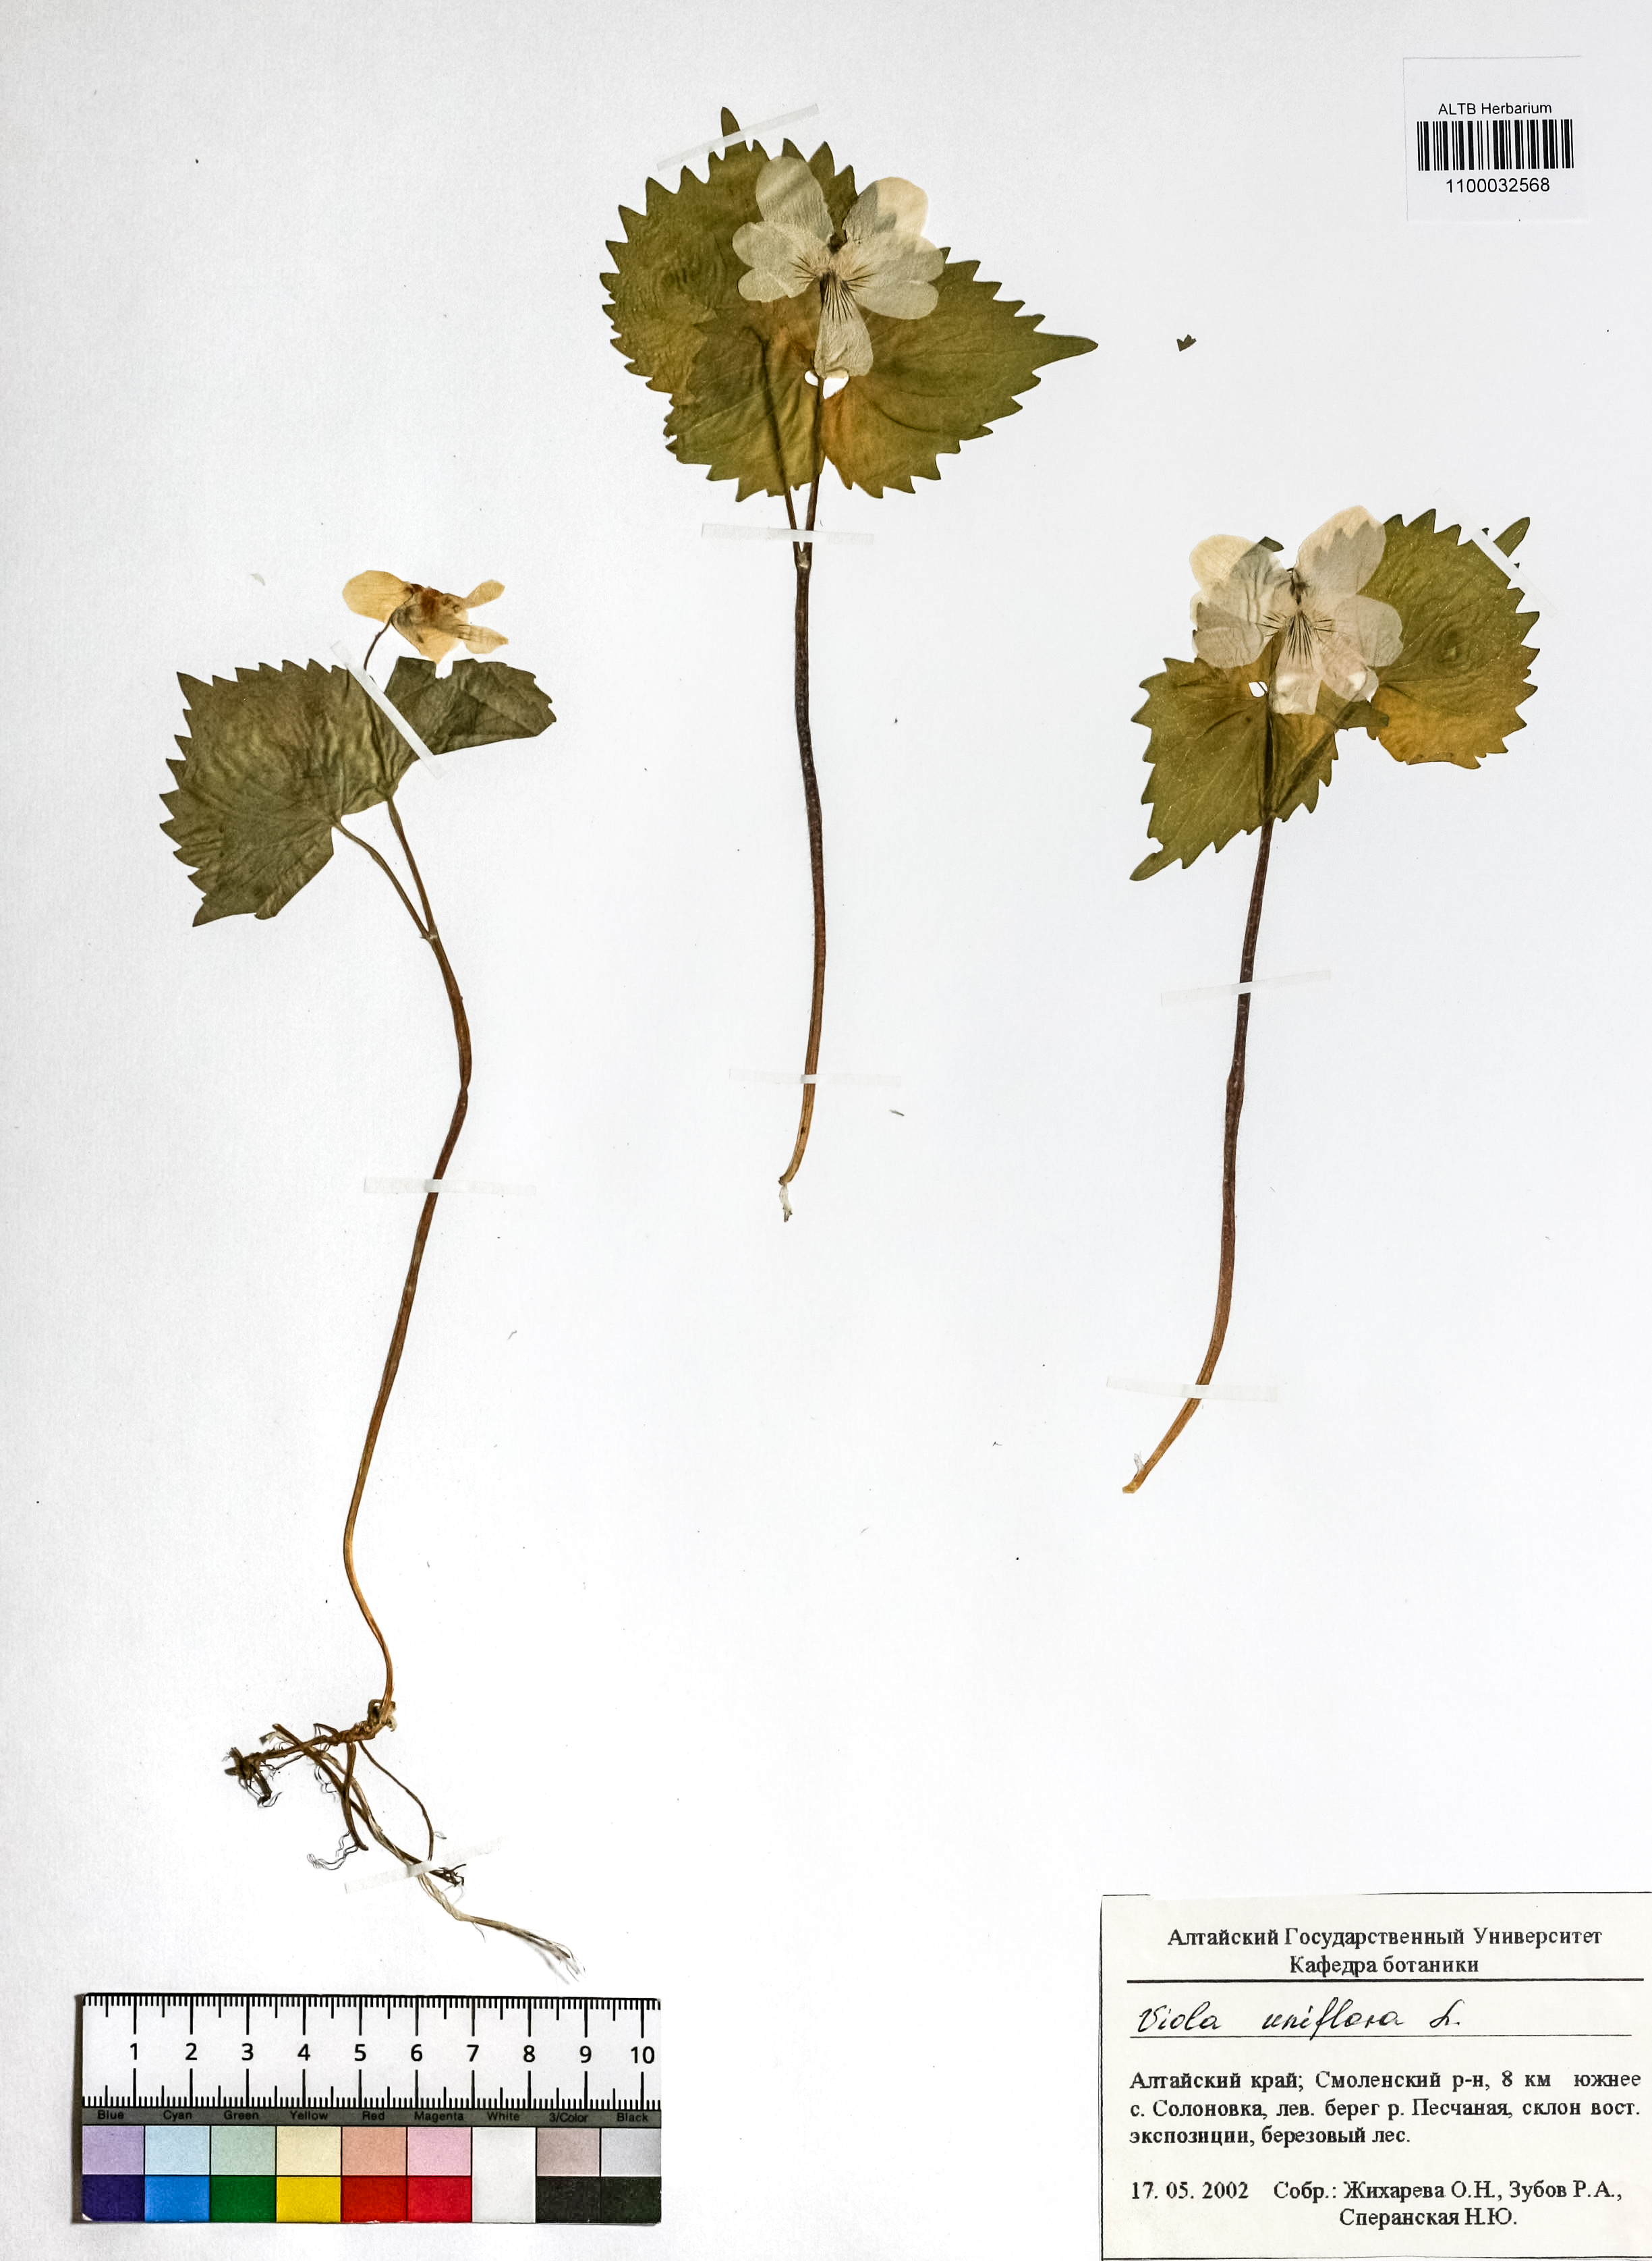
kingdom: Plantae
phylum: Tracheophyta
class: Magnoliopsida
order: Malpighiales
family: Violaceae
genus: Viola
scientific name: Viola uniflora
